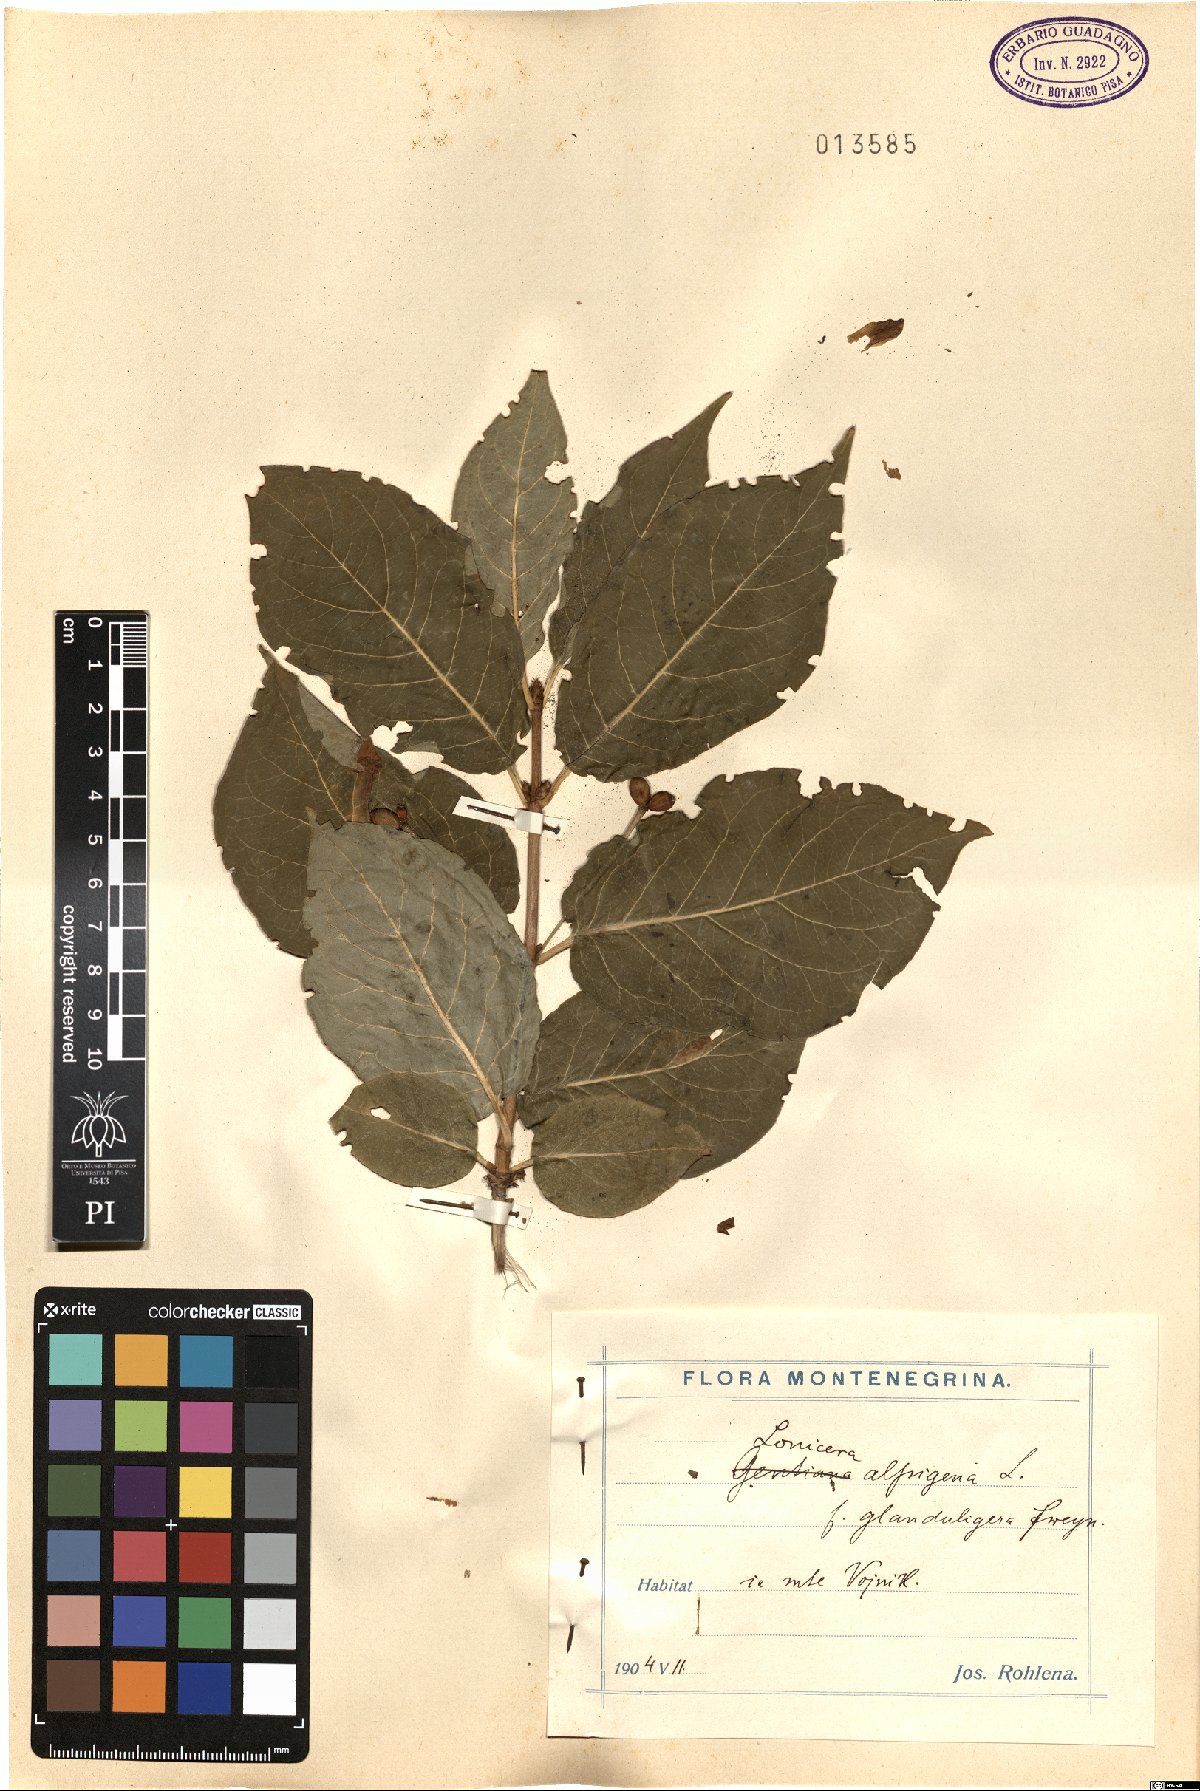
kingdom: Plantae
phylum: Tracheophyta
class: Magnoliopsida
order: Dipsacales
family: Caprifoliaceae
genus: Lonicera
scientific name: Lonicera alpigena
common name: Alpine honeysuckle
